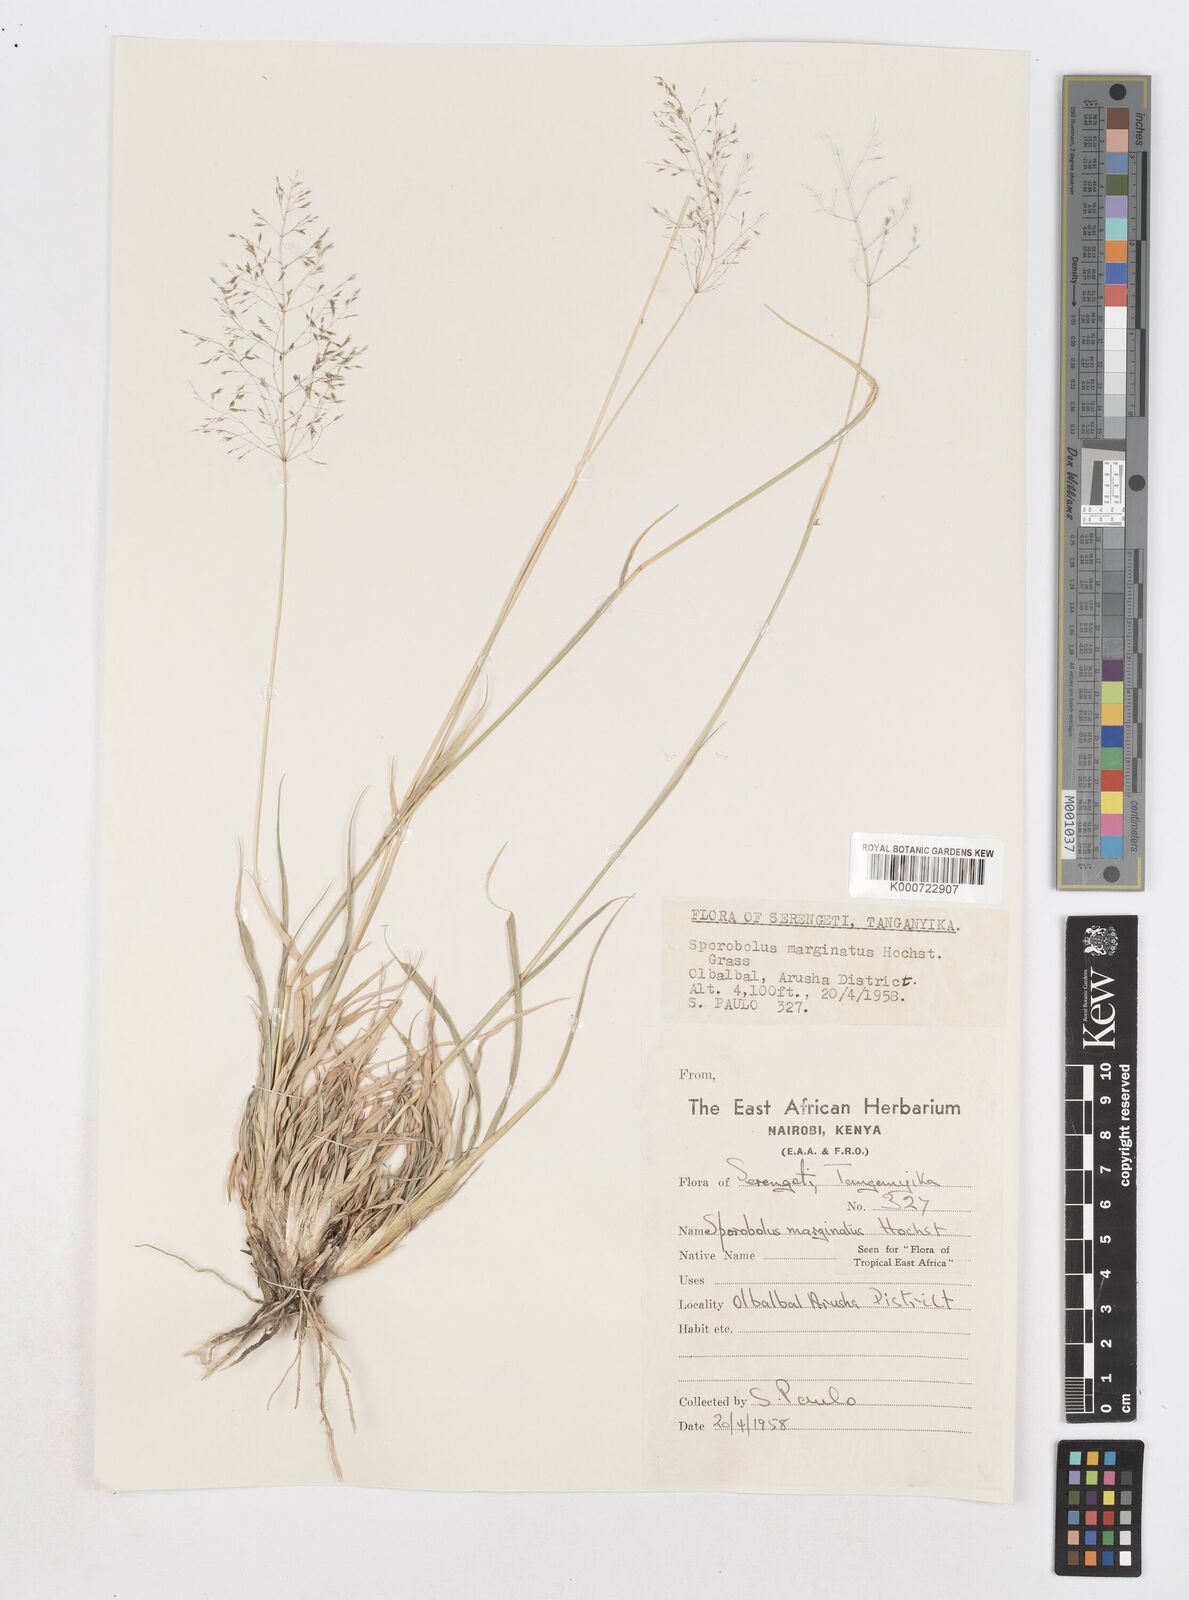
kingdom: Plantae
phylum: Tracheophyta
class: Liliopsida
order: Poales
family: Poaceae
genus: Sporobolus
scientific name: Sporobolus ioclados
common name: Pan dropseed
